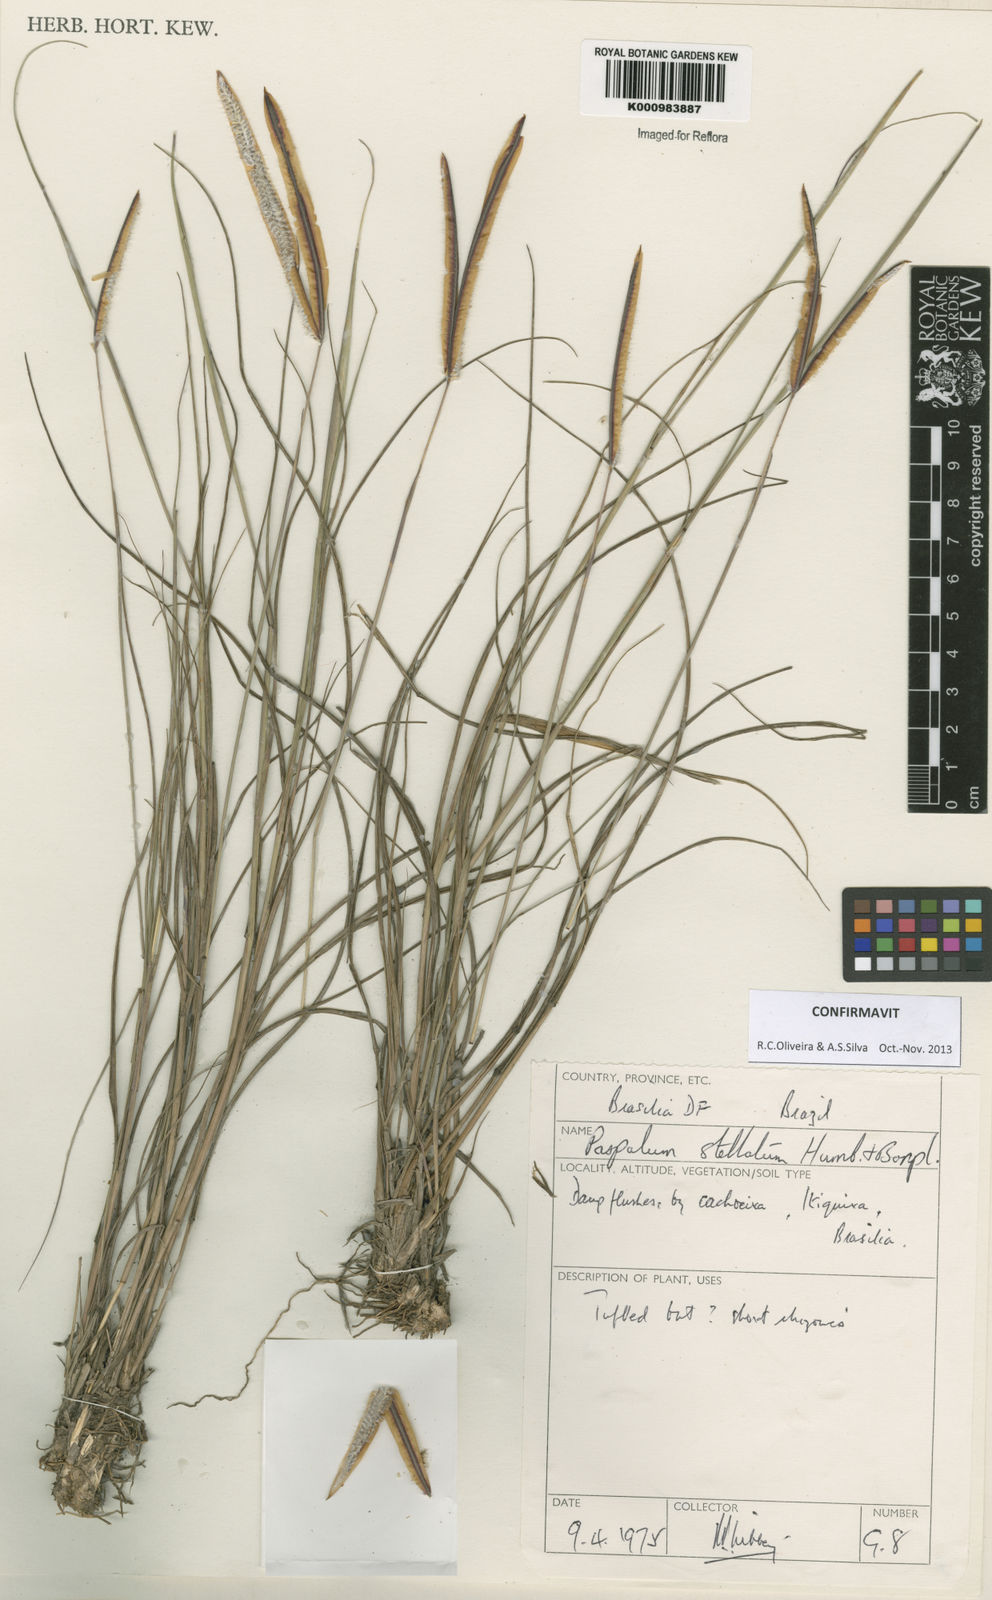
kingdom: Plantae
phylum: Tracheophyta
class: Liliopsida
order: Poales
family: Poaceae
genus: Paspalum
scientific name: Paspalum
